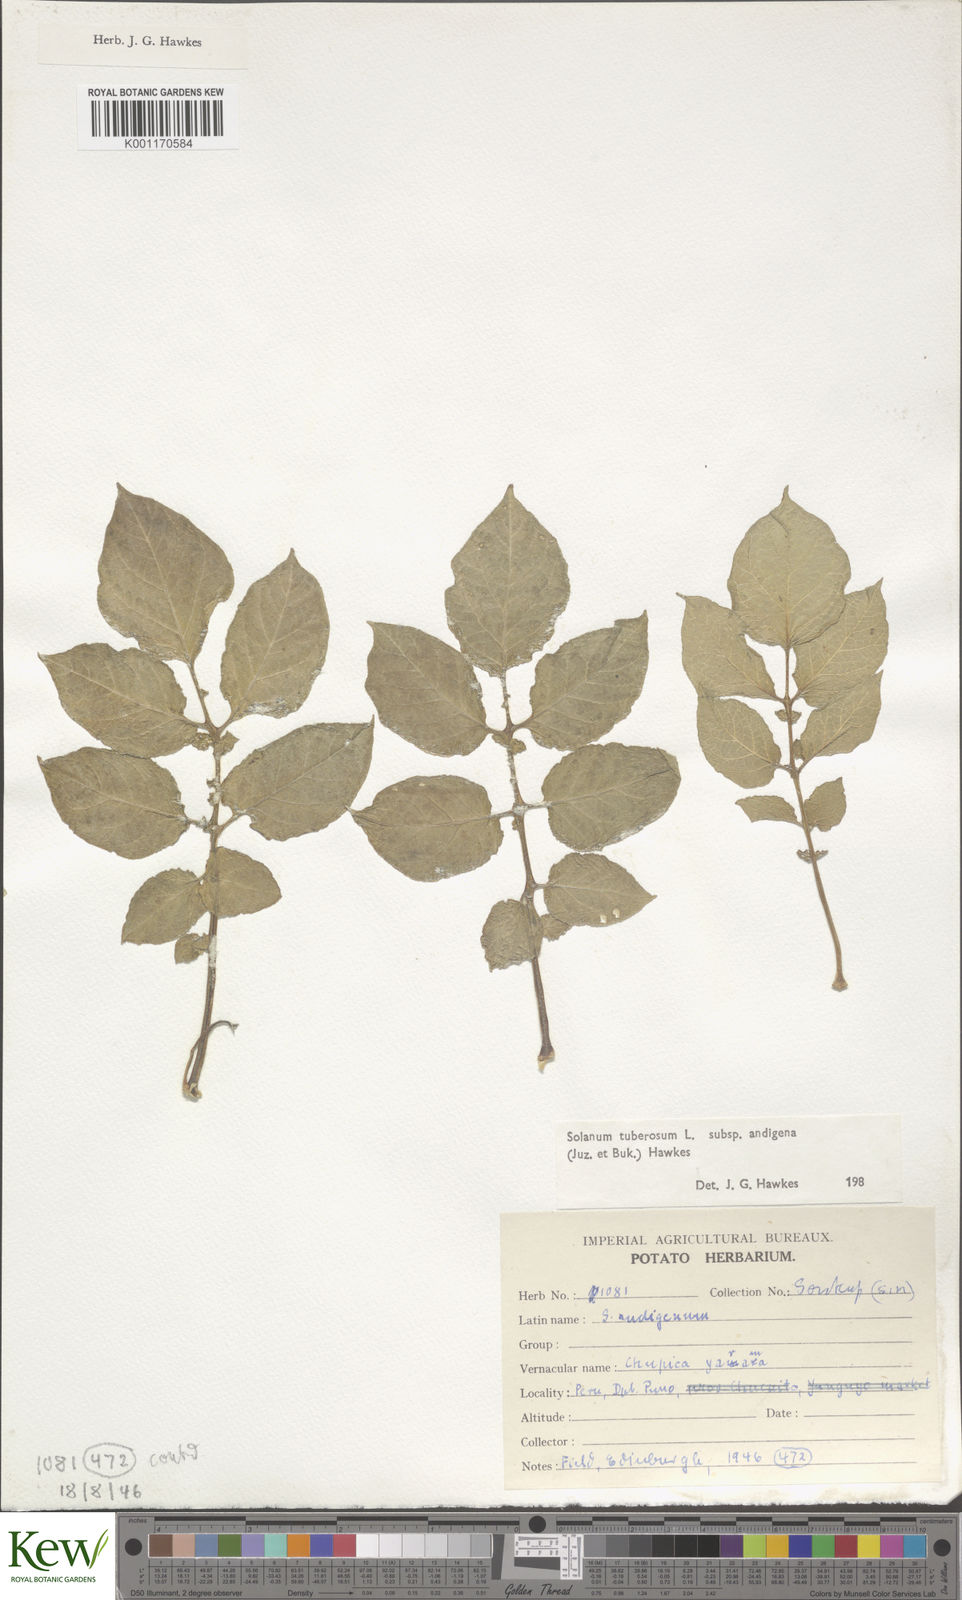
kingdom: Plantae
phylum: Tracheophyta
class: Magnoliopsida
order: Solanales
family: Solanaceae
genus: Solanum
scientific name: Solanum tuberosum
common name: Potato
